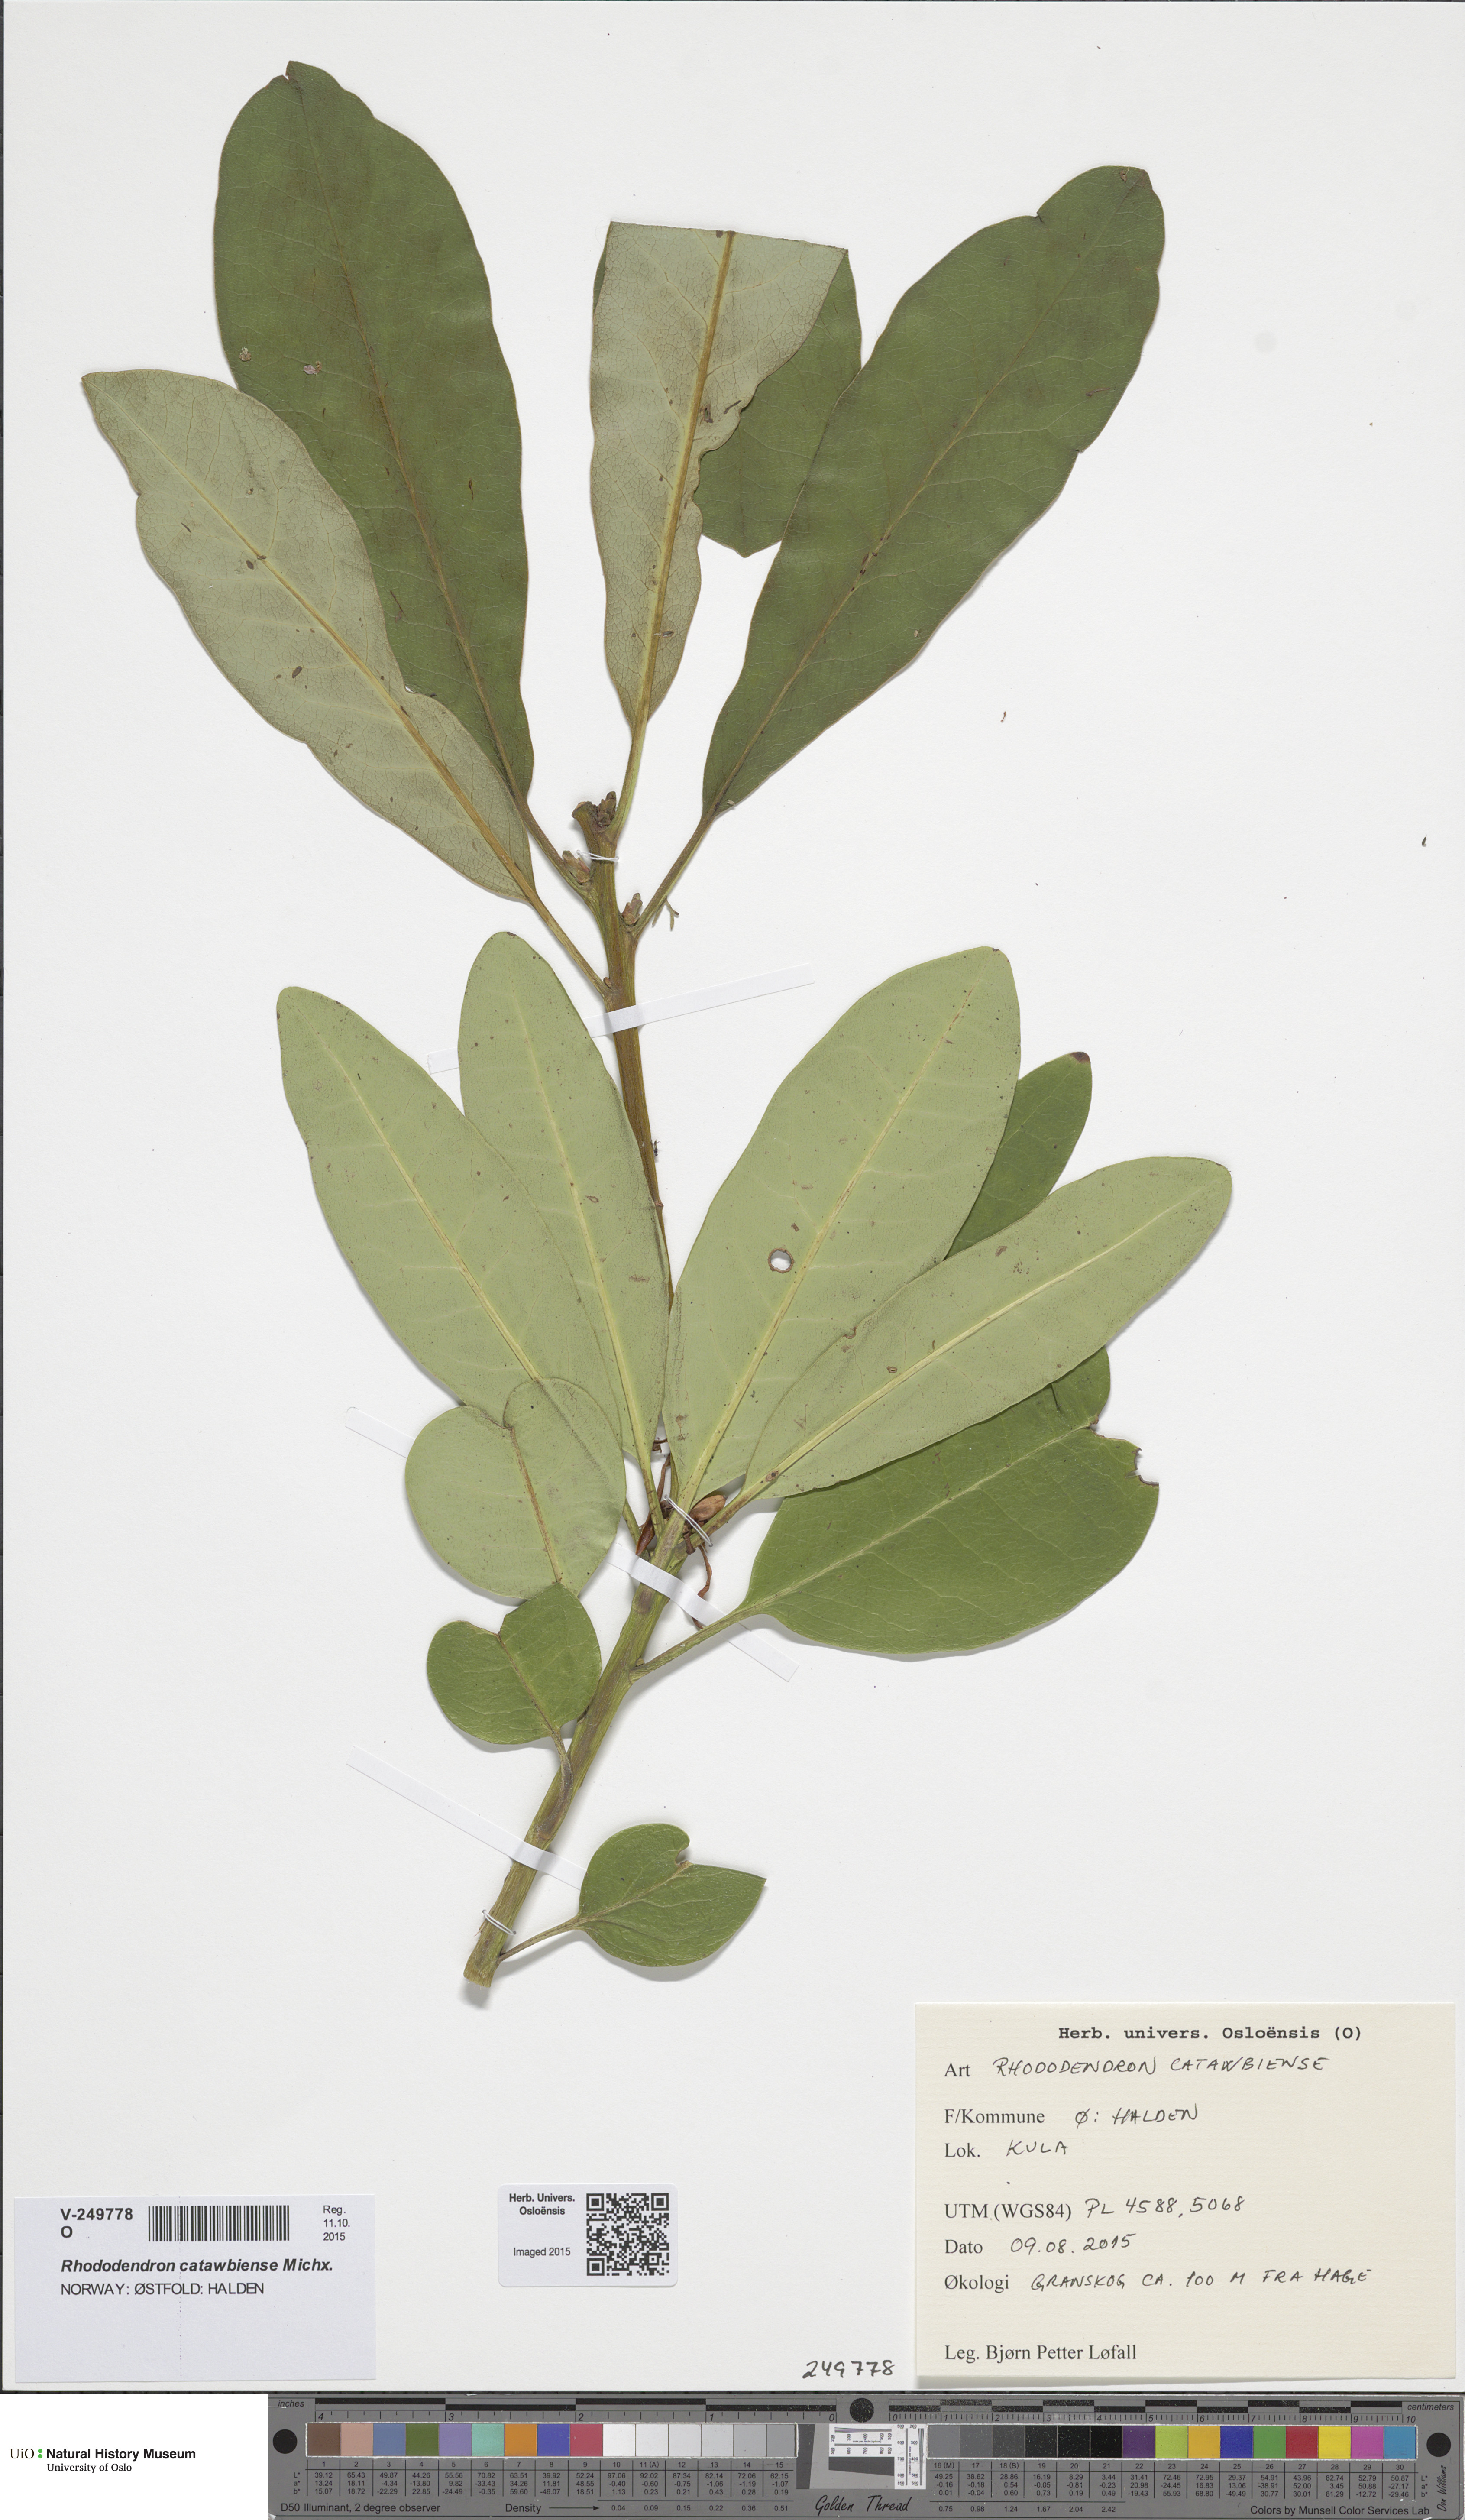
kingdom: Plantae
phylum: Tracheophyta
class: Magnoliopsida
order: Ericales
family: Ericaceae
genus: Rhododendron
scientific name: Rhododendron catawbiense
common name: Catawba rhododendron
